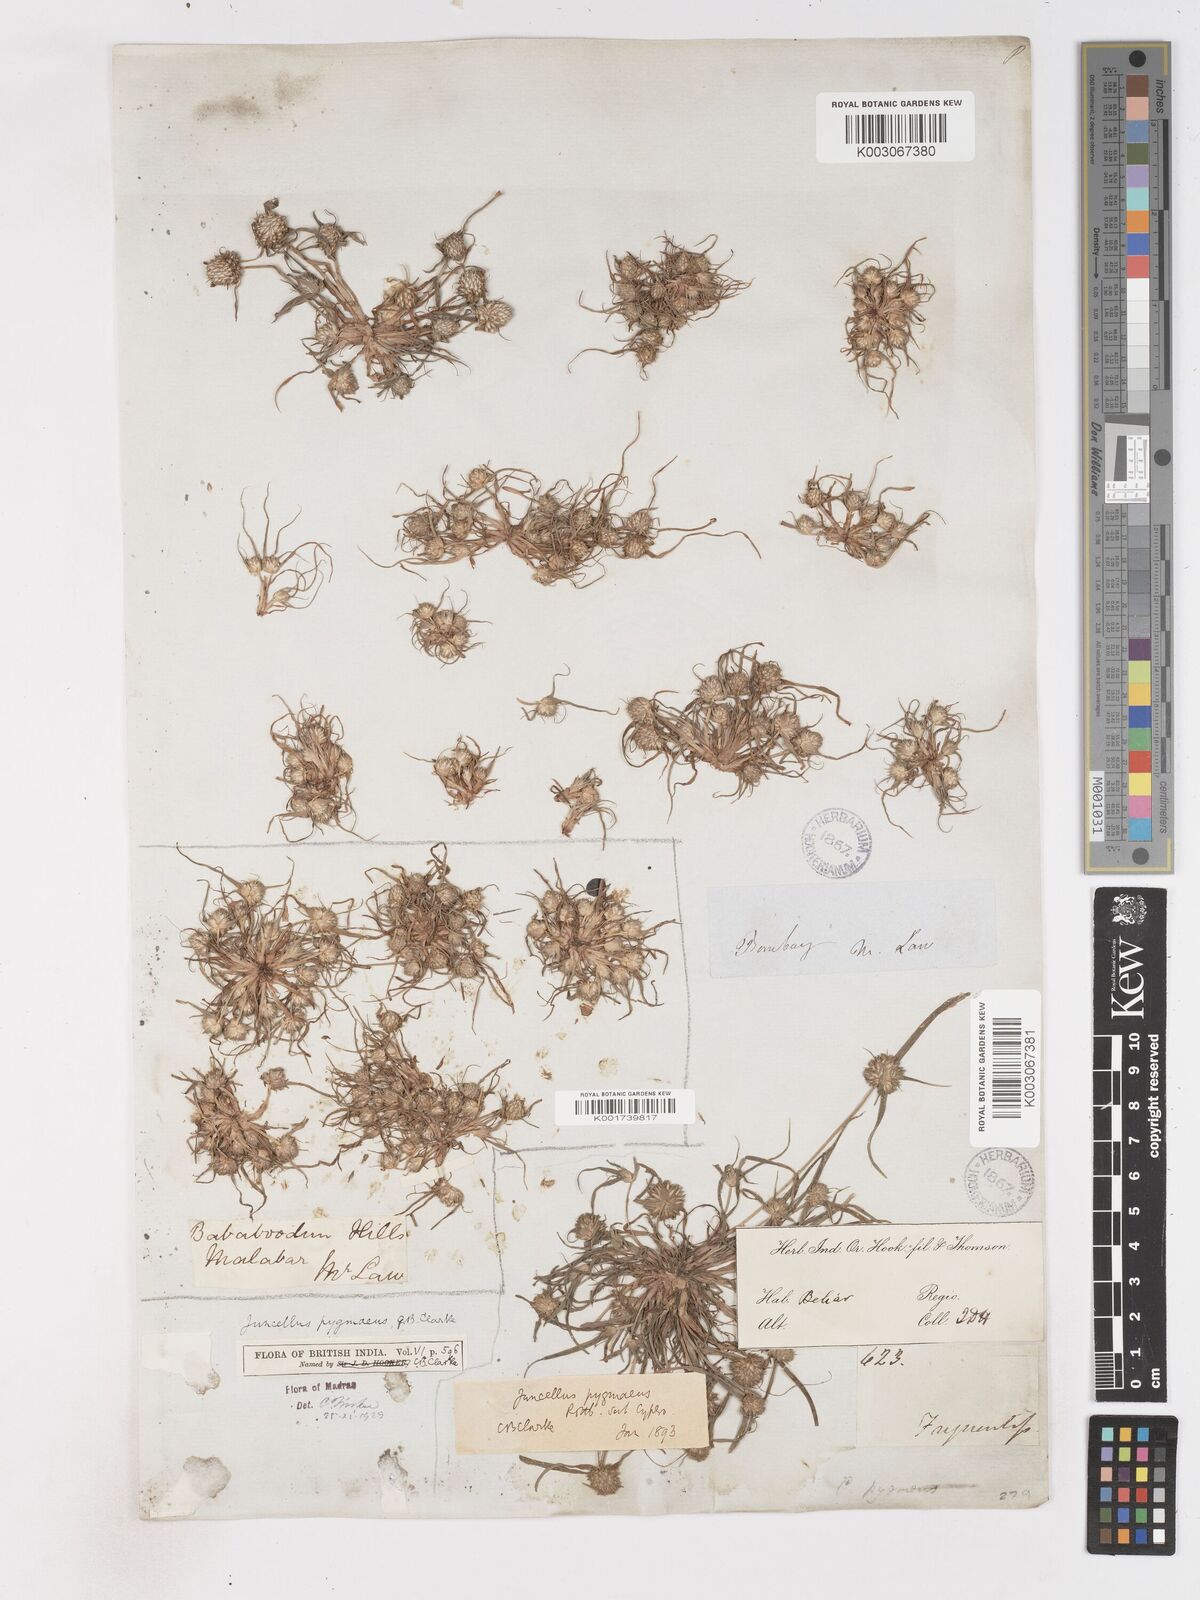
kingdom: Plantae
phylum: Tracheophyta
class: Liliopsida
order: Poales
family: Cyperaceae
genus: Cyperus
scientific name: Cyperus michelianus
